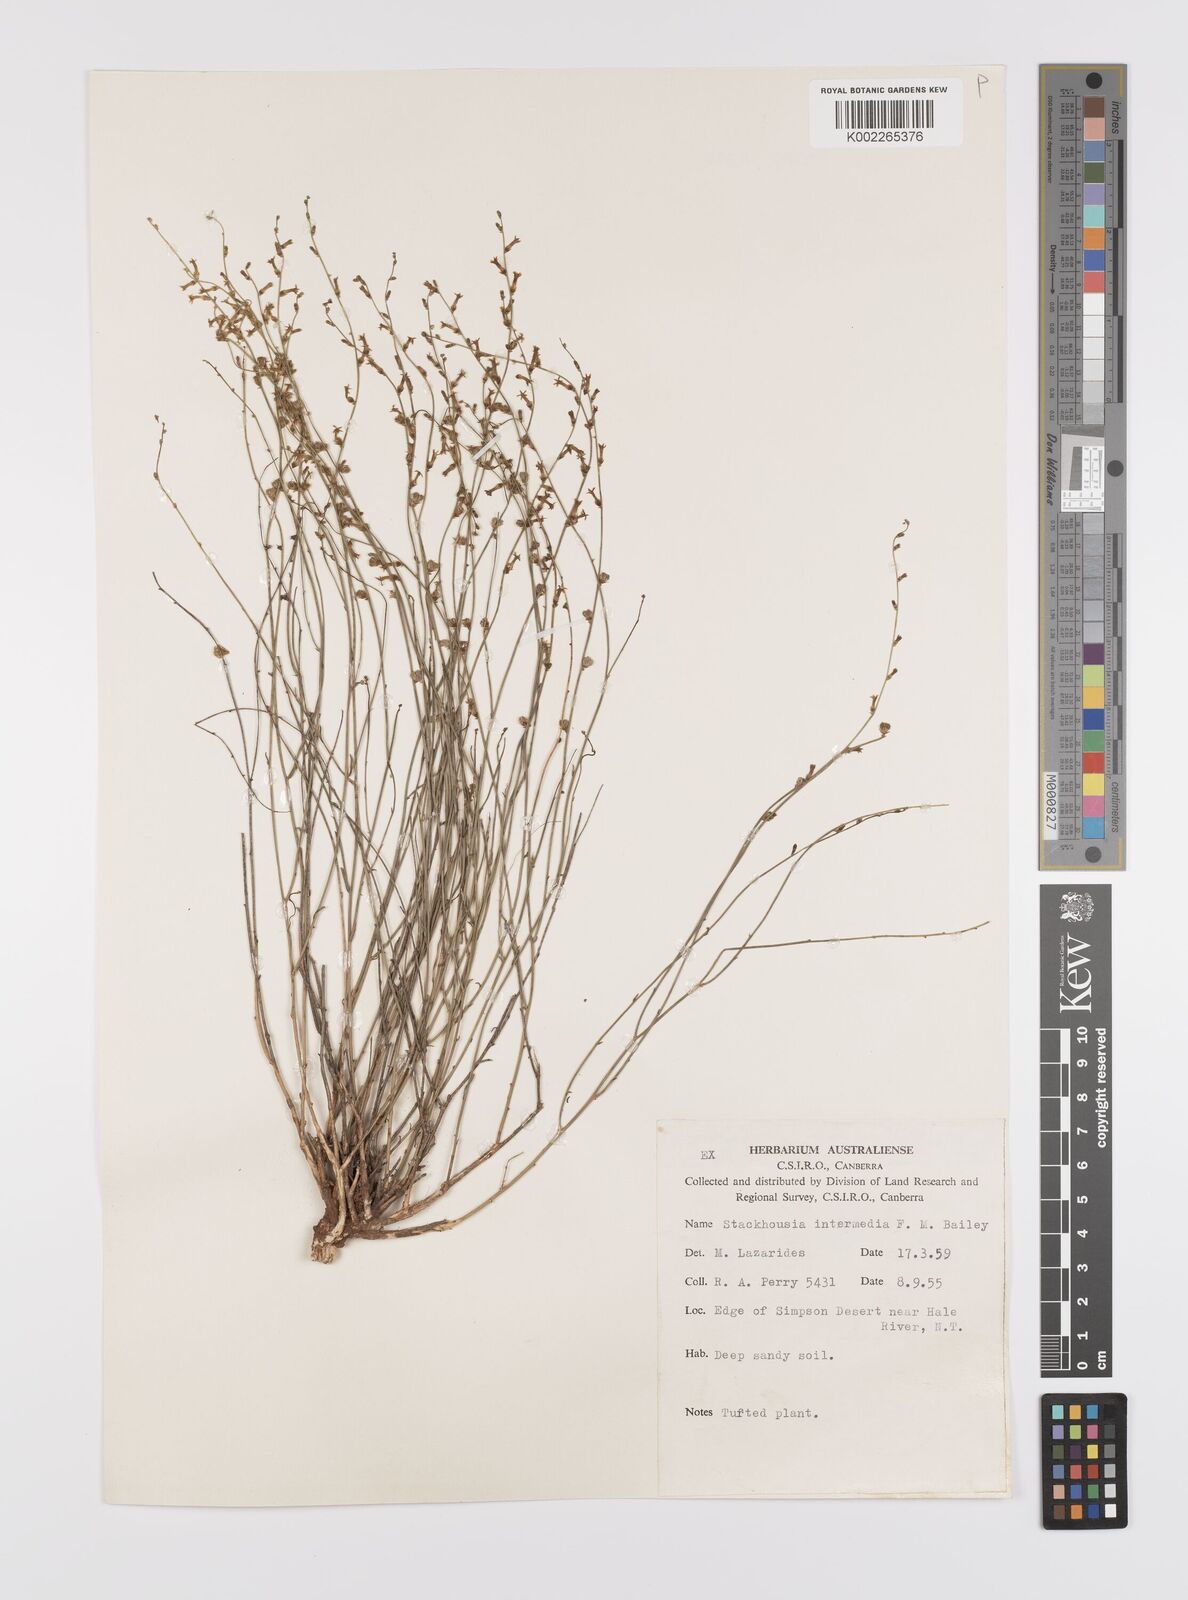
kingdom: Plantae
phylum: Tracheophyta
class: Magnoliopsida
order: Celastrales
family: Celastraceae
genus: Stackhousia
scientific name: Stackhousia intermedia
